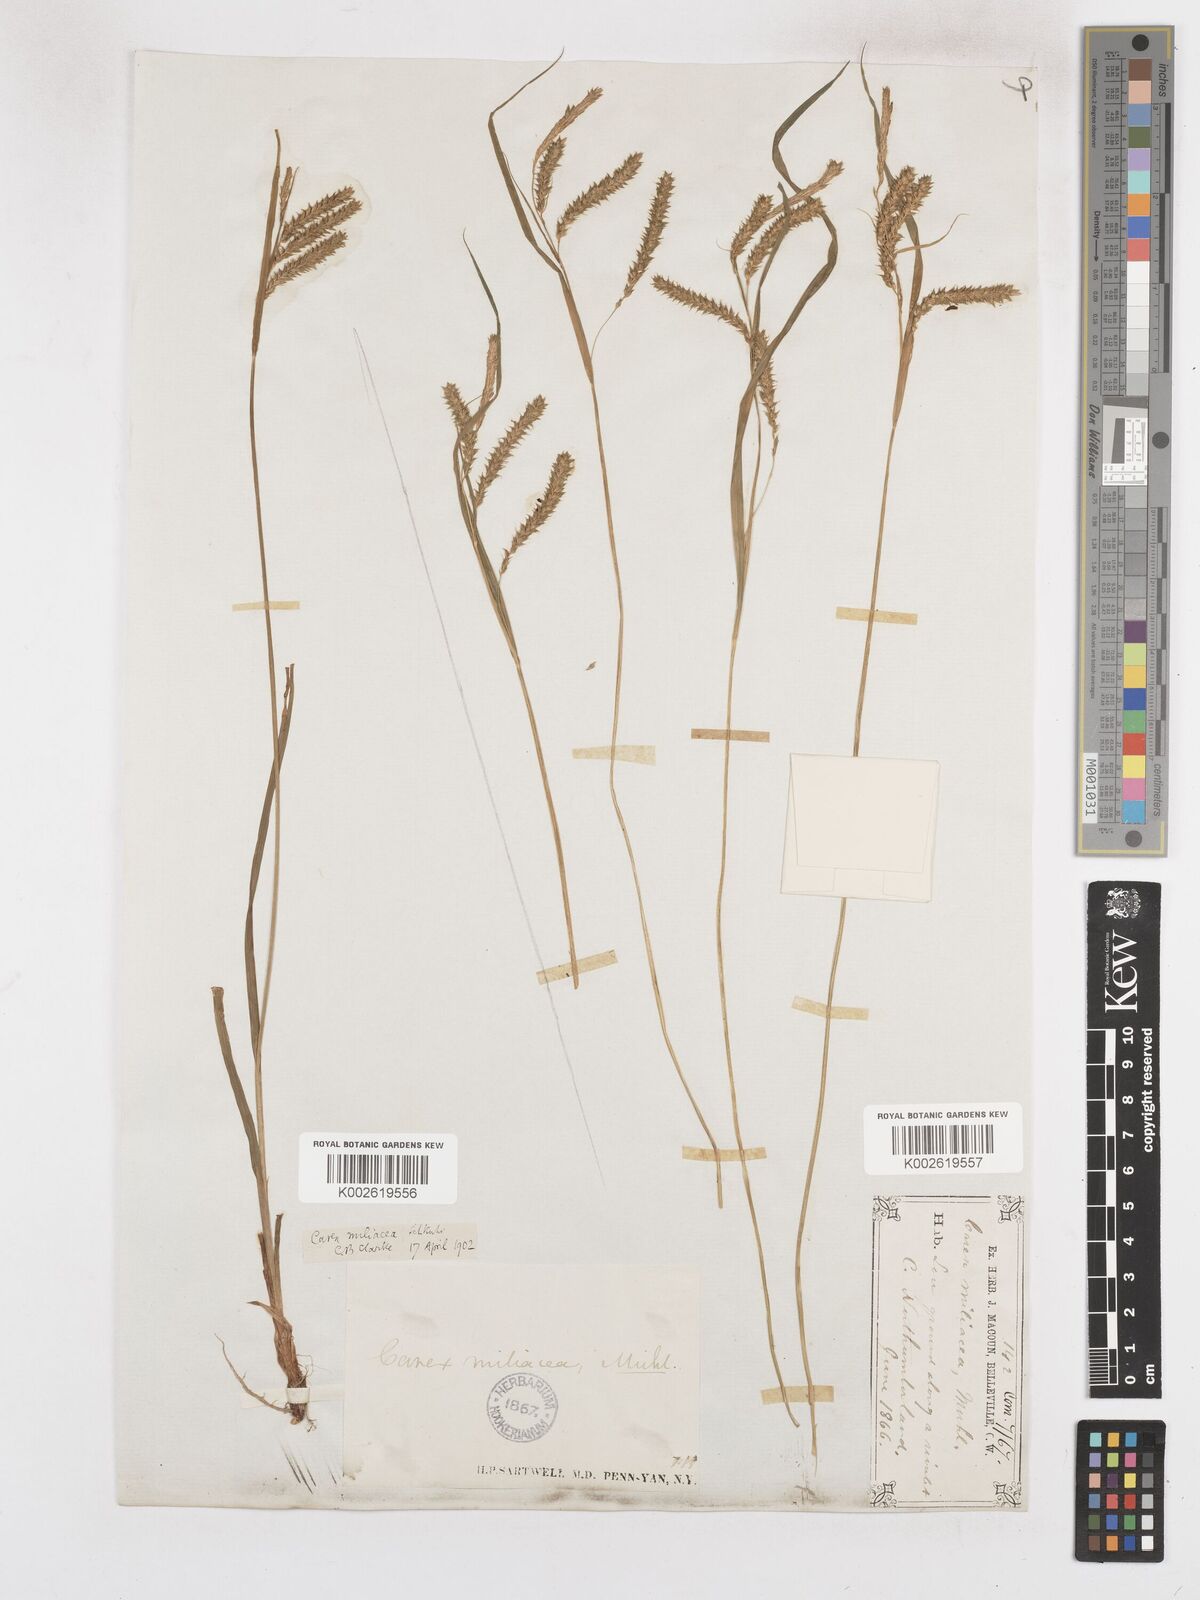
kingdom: Plantae
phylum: Tracheophyta
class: Liliopsida
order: Poales
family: Cyperaceae
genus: Carex
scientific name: Carex prasina
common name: Drooping sedge
